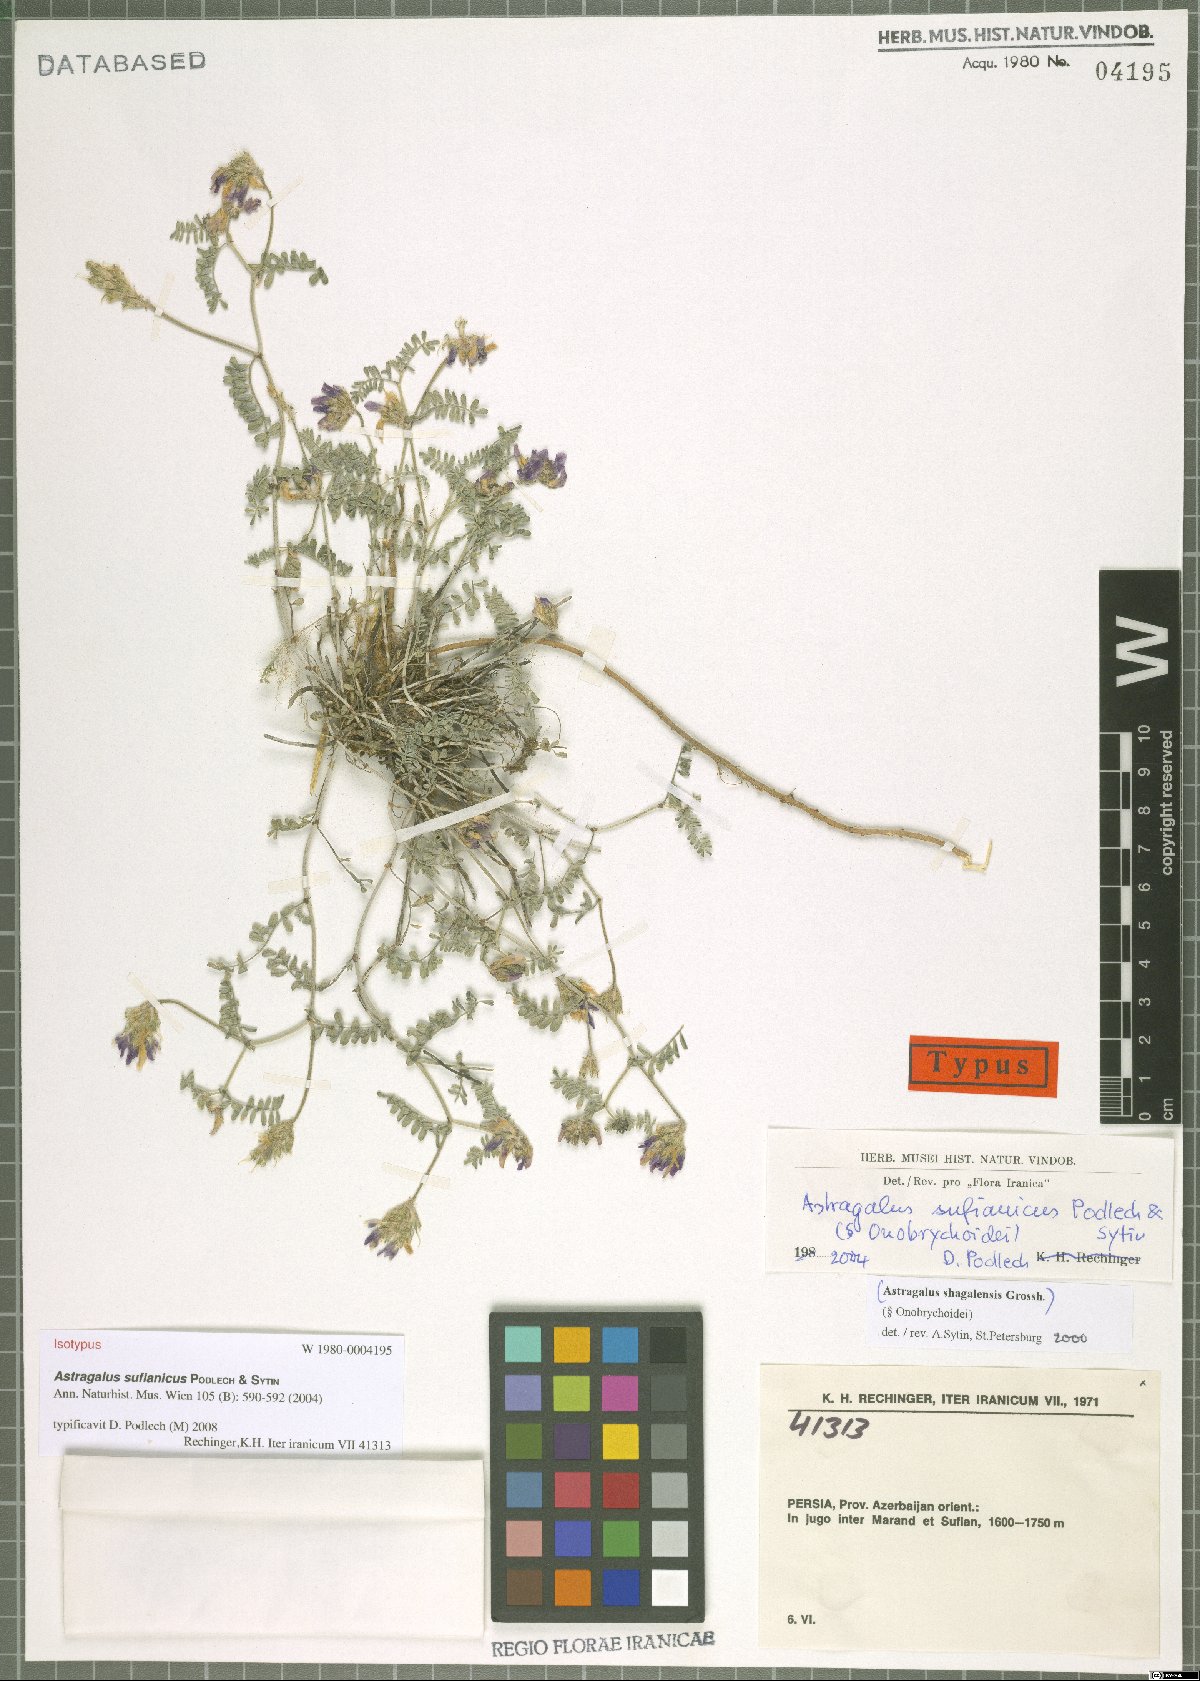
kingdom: Plantae
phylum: Tracheophyta
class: Magnoliopsida
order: Fabales
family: Fabaceae
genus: Astragalus
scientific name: Astragalus sufianicus
